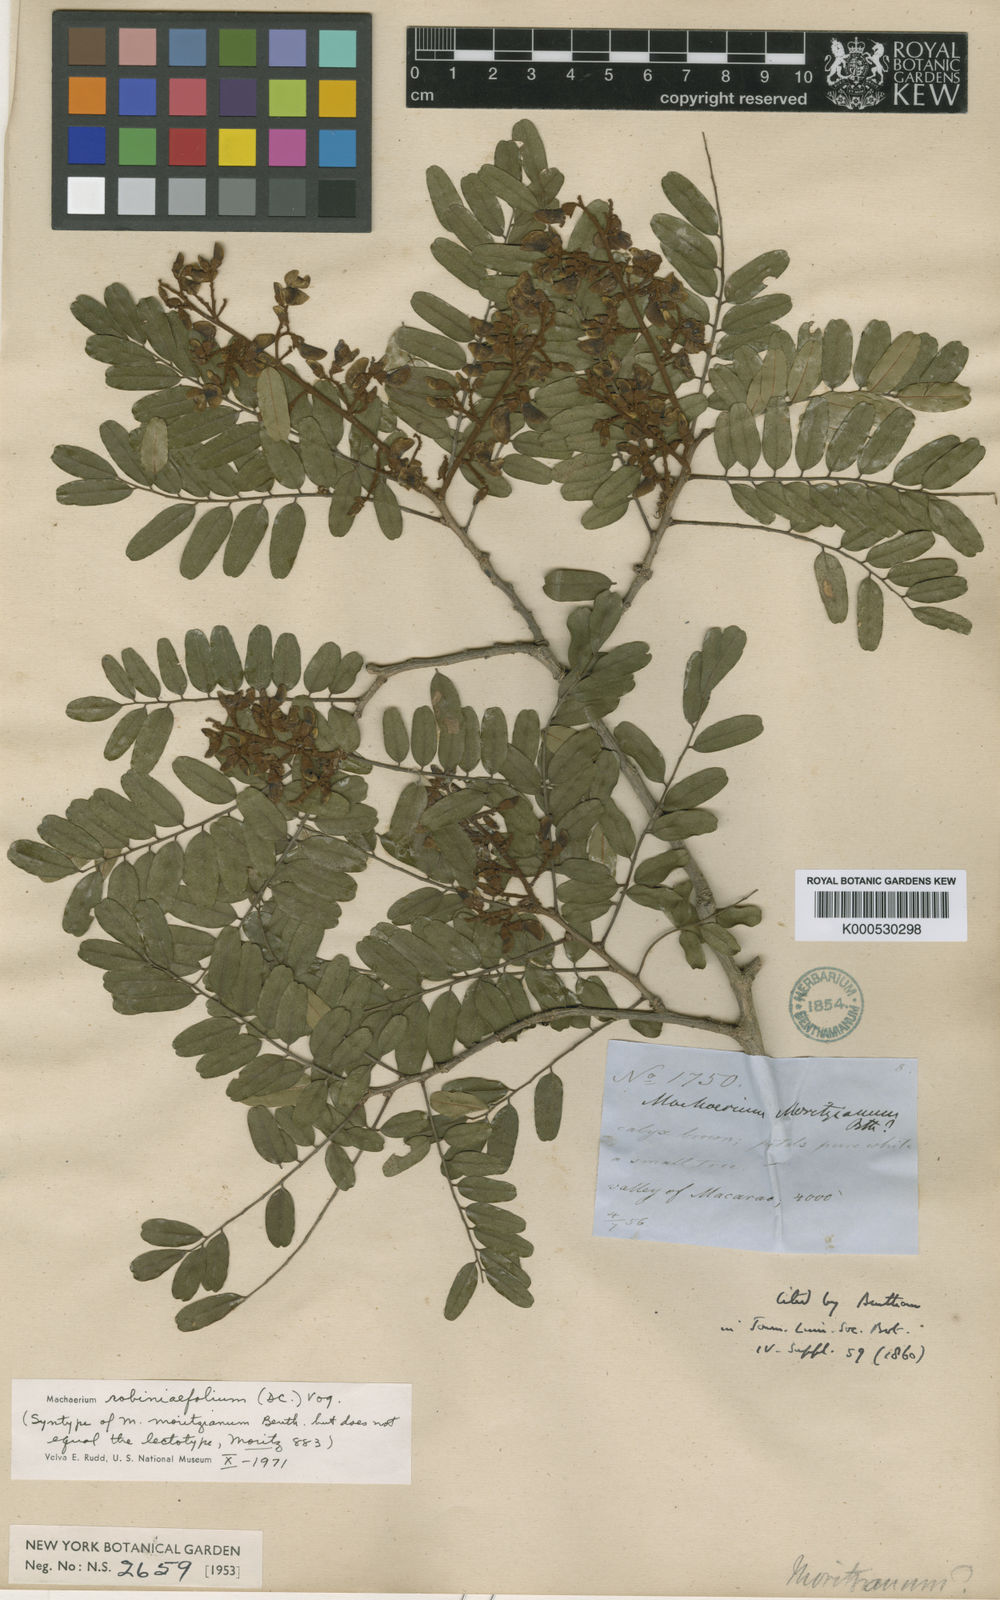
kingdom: Plantae
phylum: Tracheophyta
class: Magnoliopsida
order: Fabales
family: Fabaceae
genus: Machaerium
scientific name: Machaerium robiniifolium
